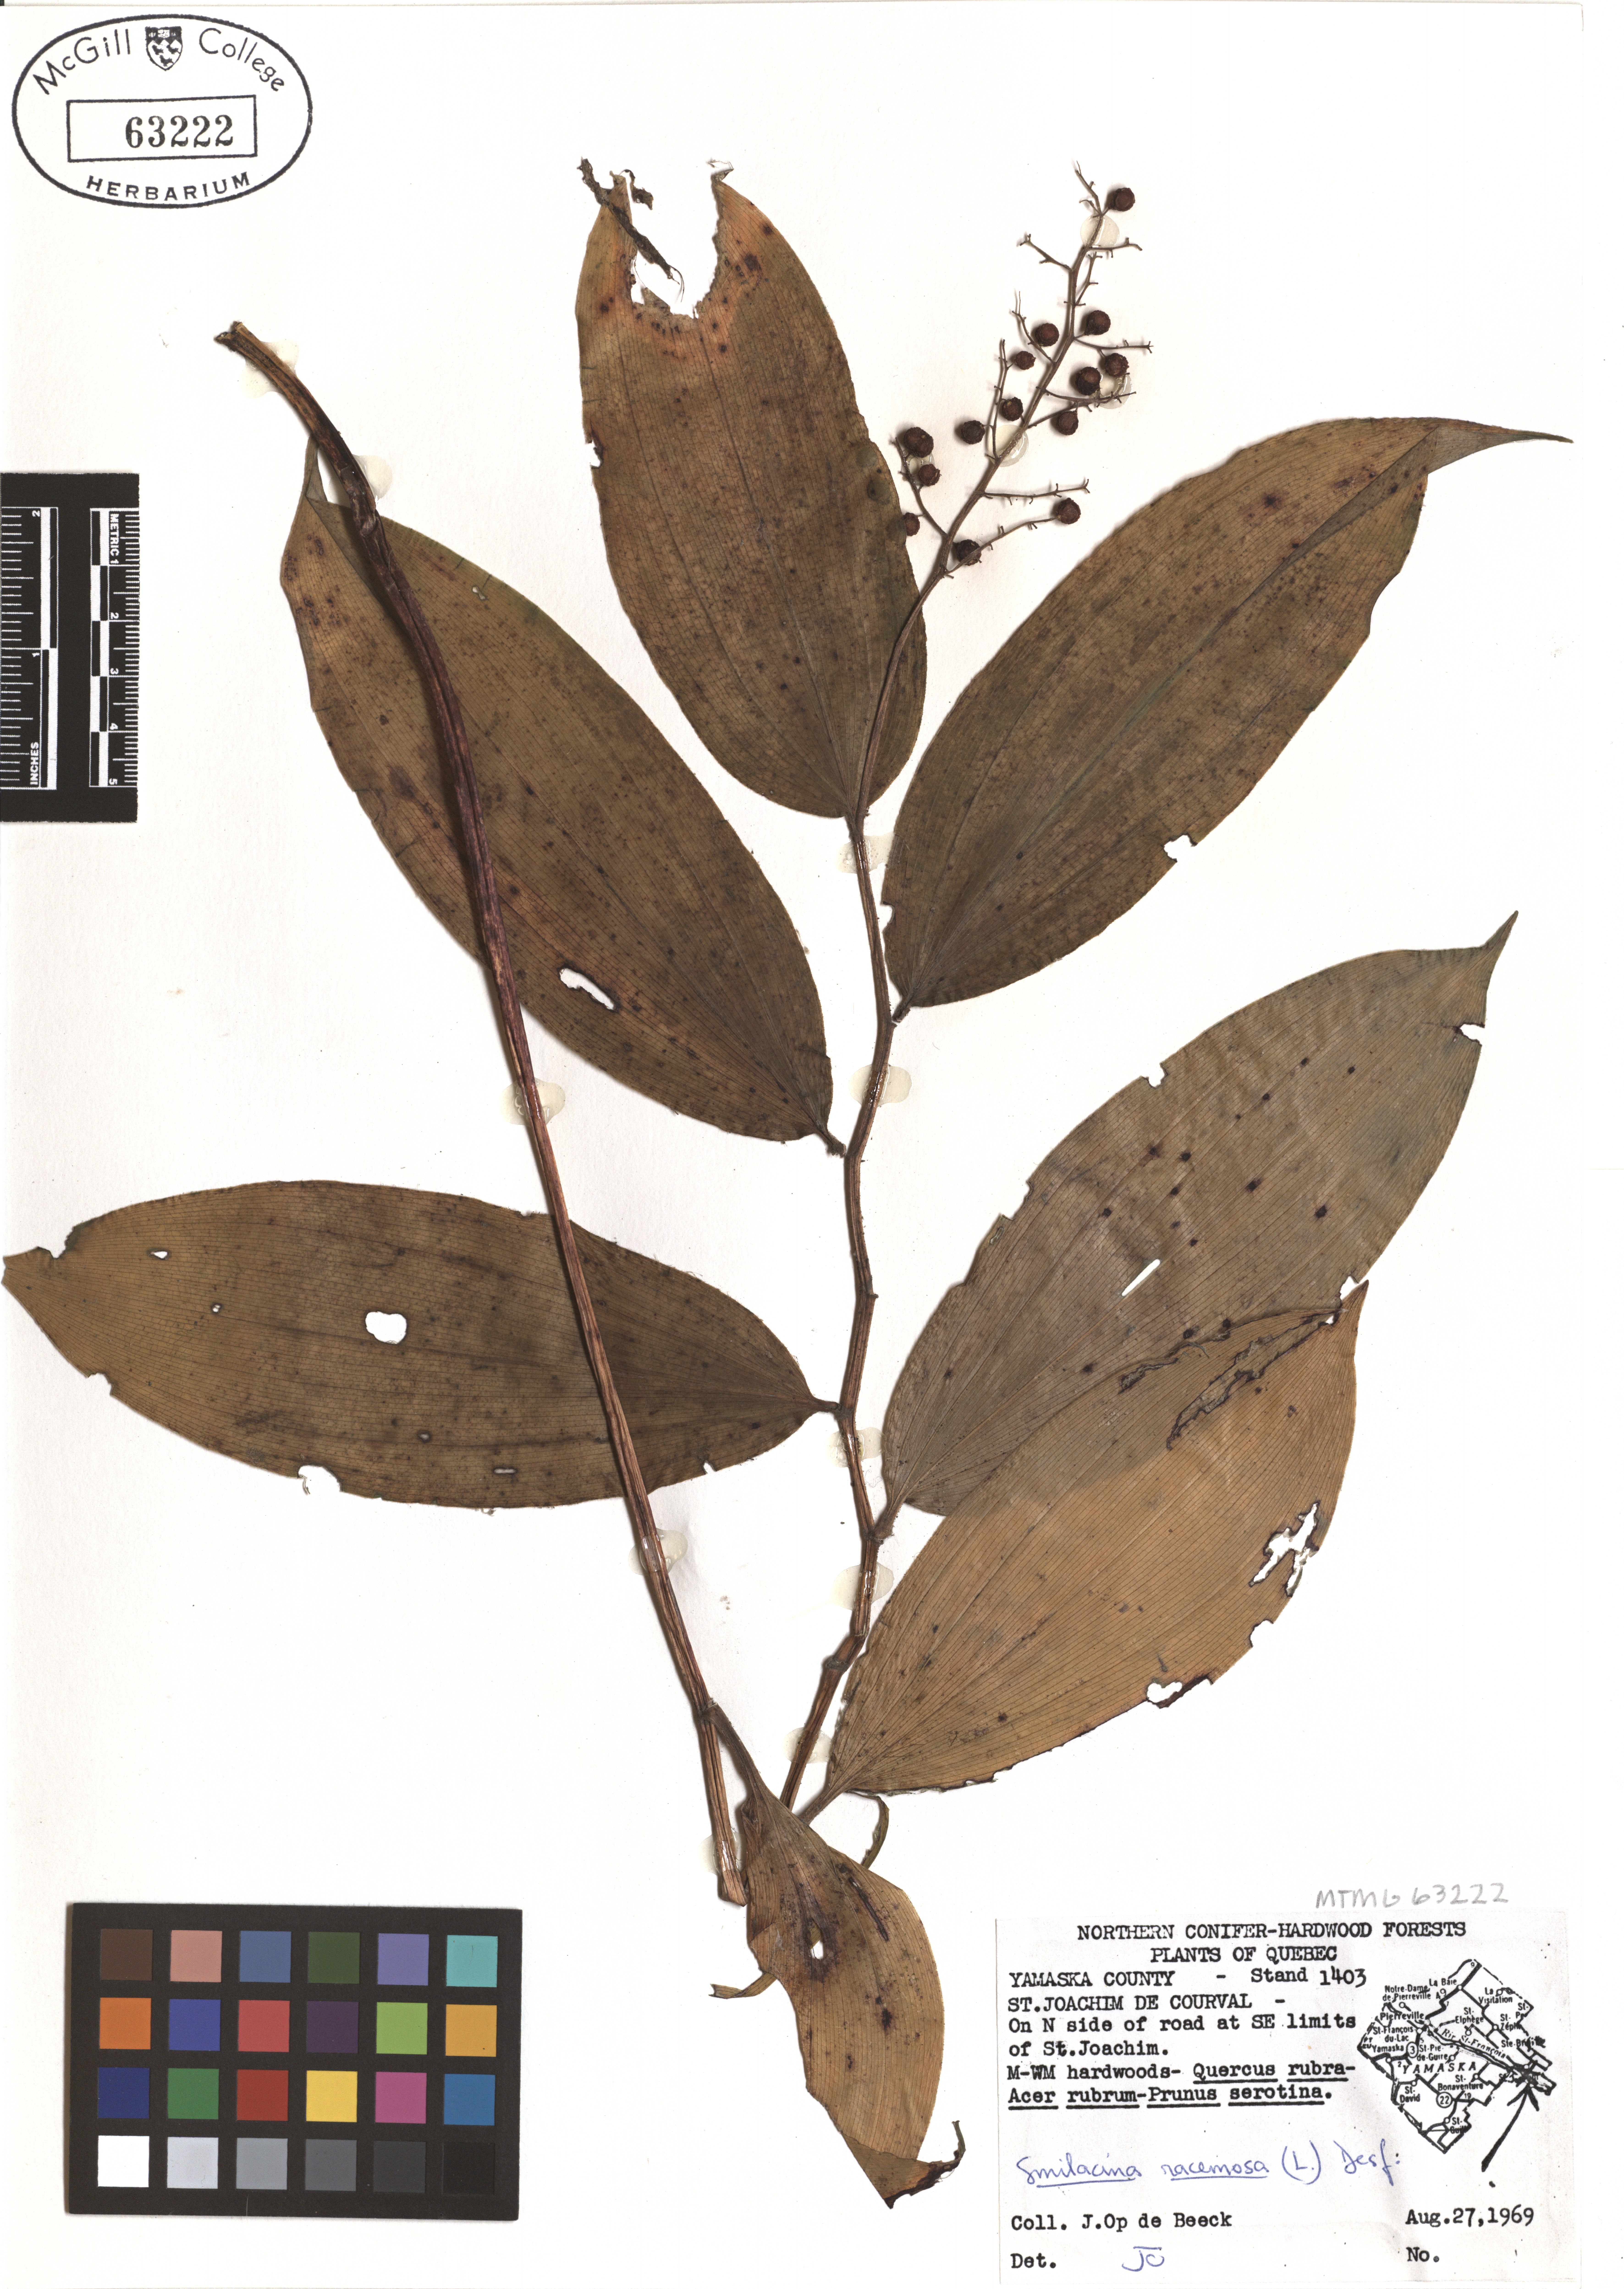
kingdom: Plantae
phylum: Tracheophyta
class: Liliopsida
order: Asparagales
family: Asparagaceae
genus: Maianthemum
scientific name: Maianthemum racemosum
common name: False spikenard
